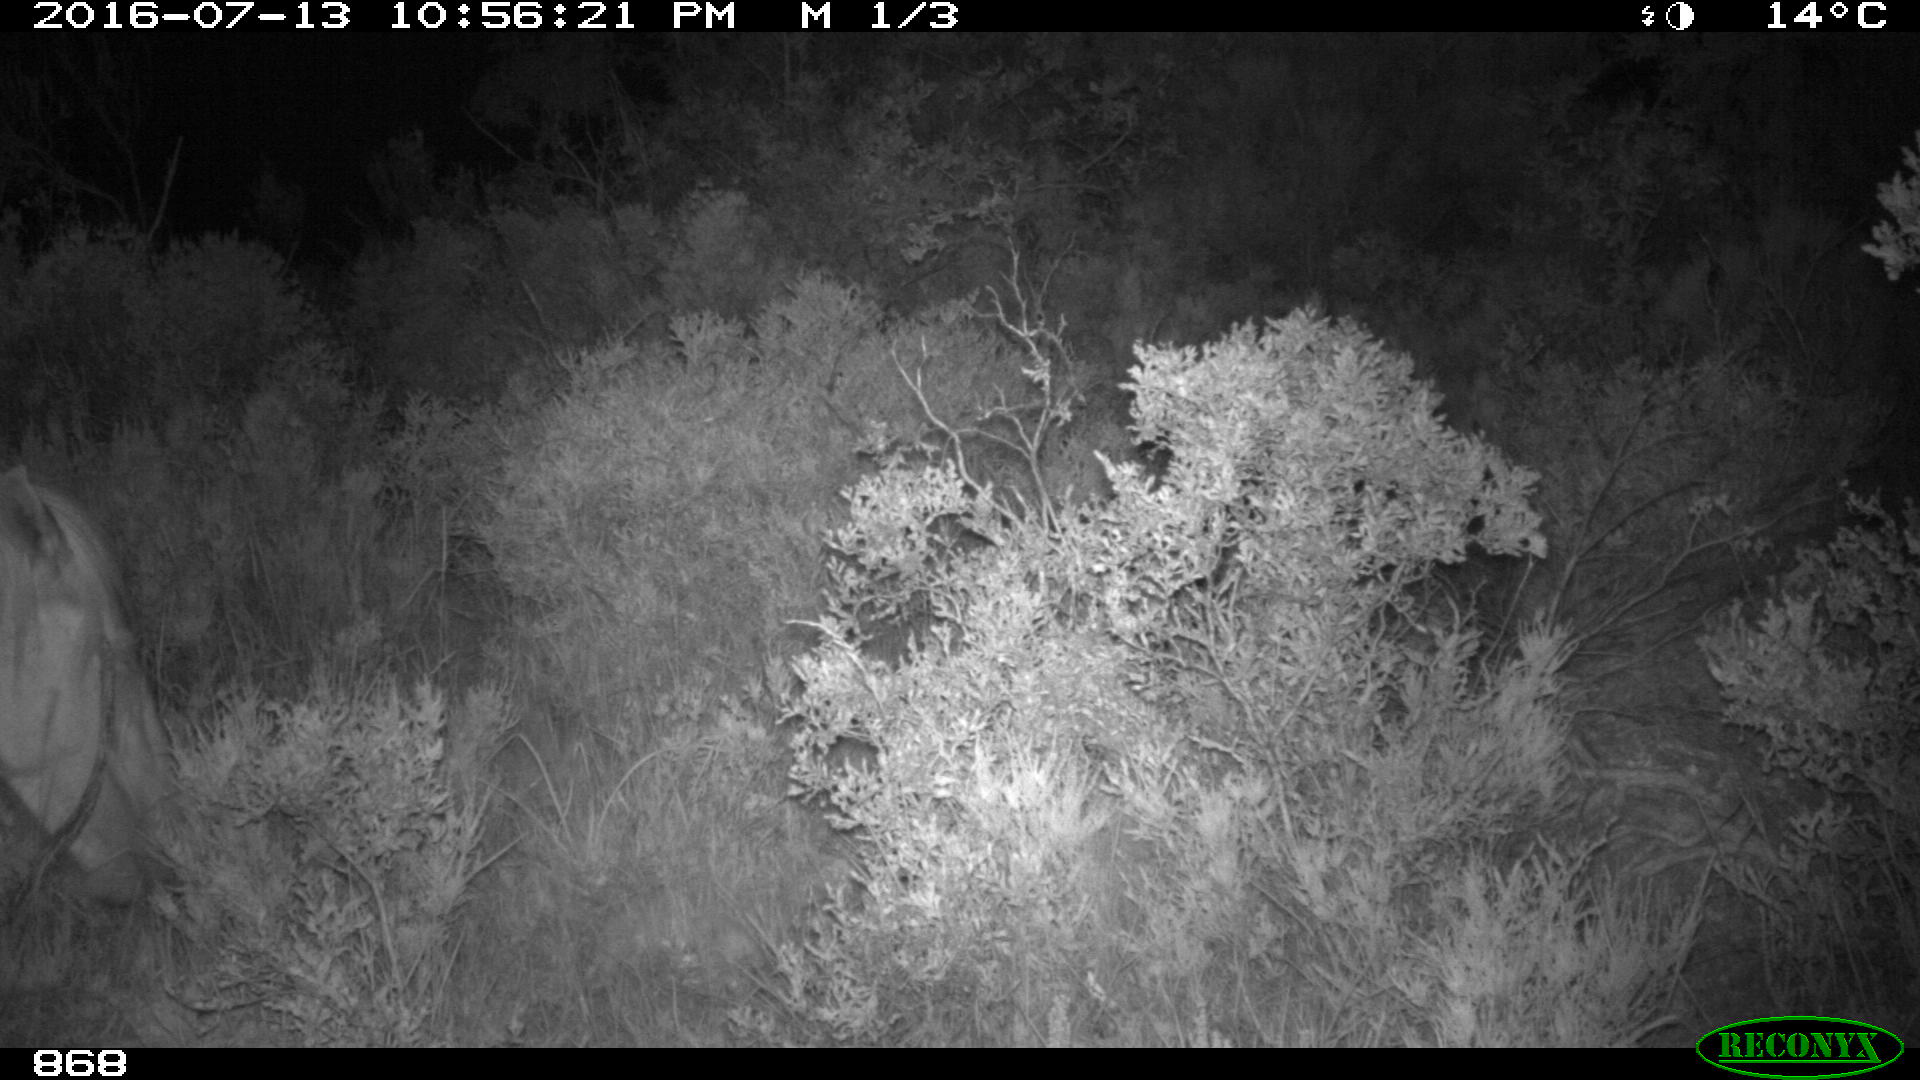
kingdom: Animalia
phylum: Chordata
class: Mammalia
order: Perissodactyla
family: Equidae
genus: Equus
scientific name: Equus caballus
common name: Horse
